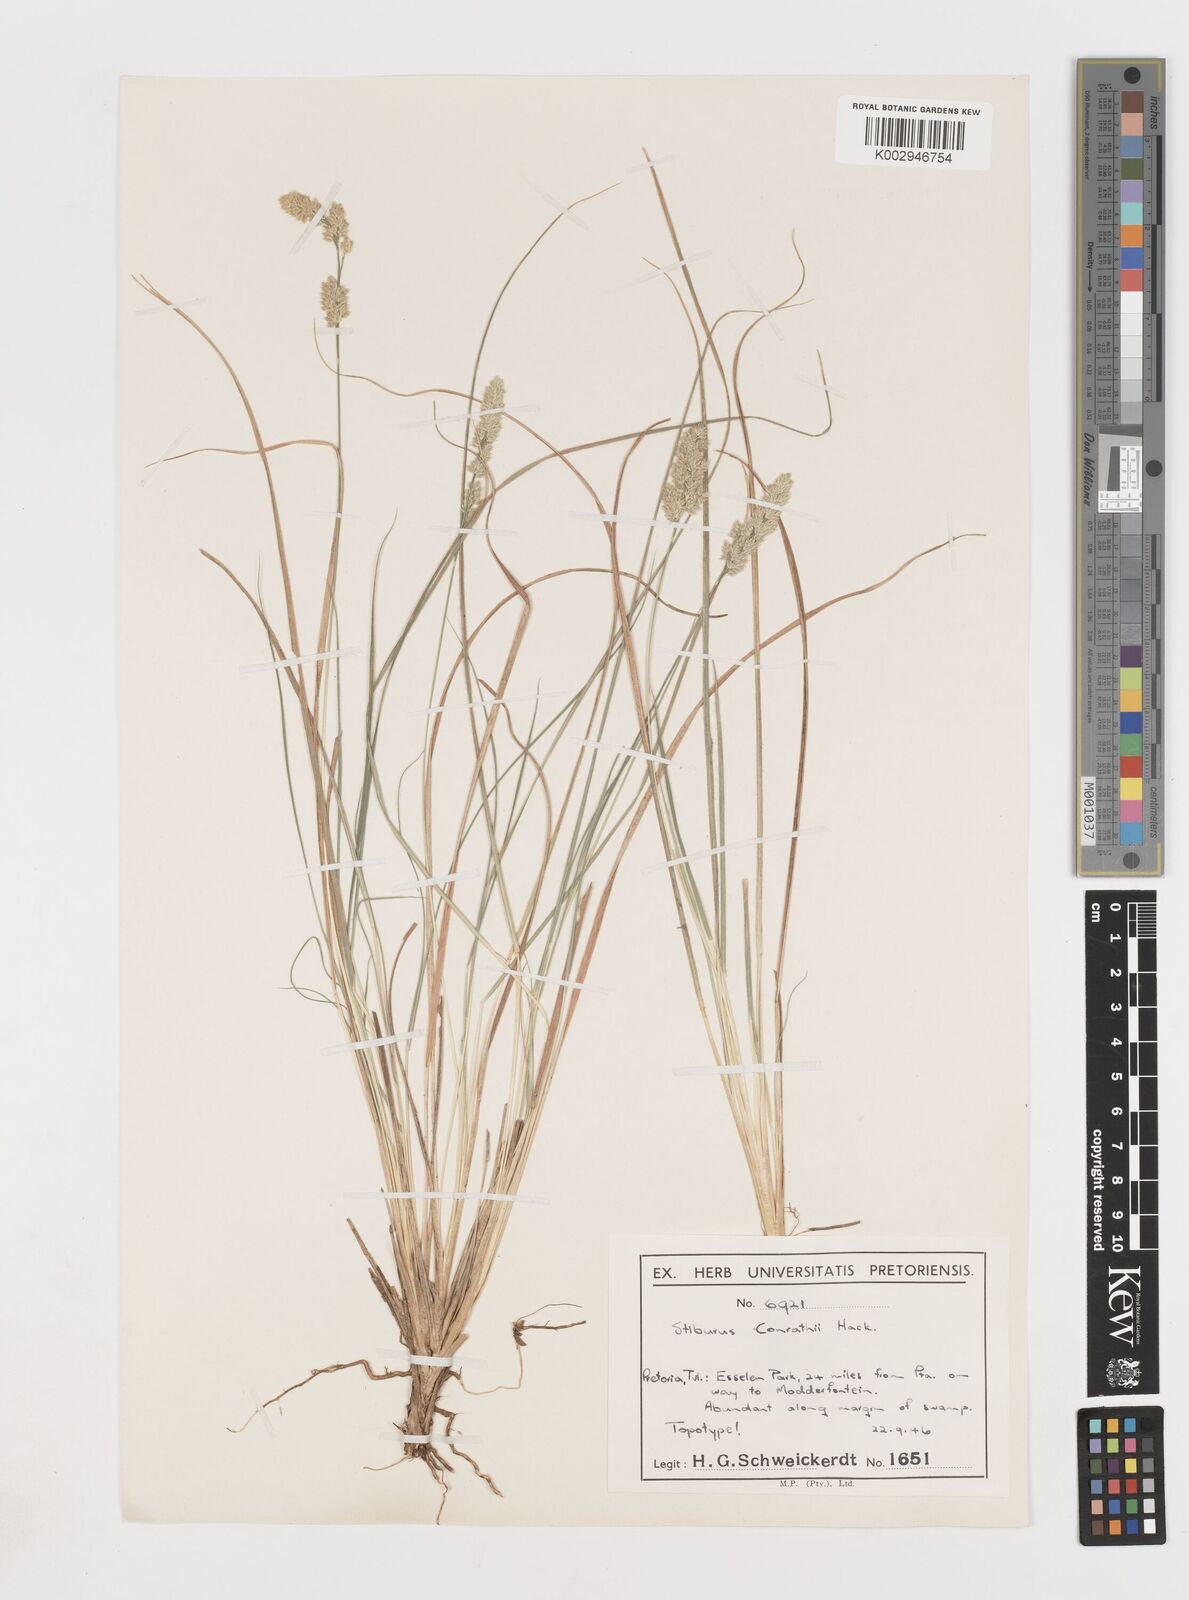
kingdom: Plantae
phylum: Tracheophyta
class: Liliopsida
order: Poales
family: Poaceae
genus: Stiburus
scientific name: Stiburus conrathii
